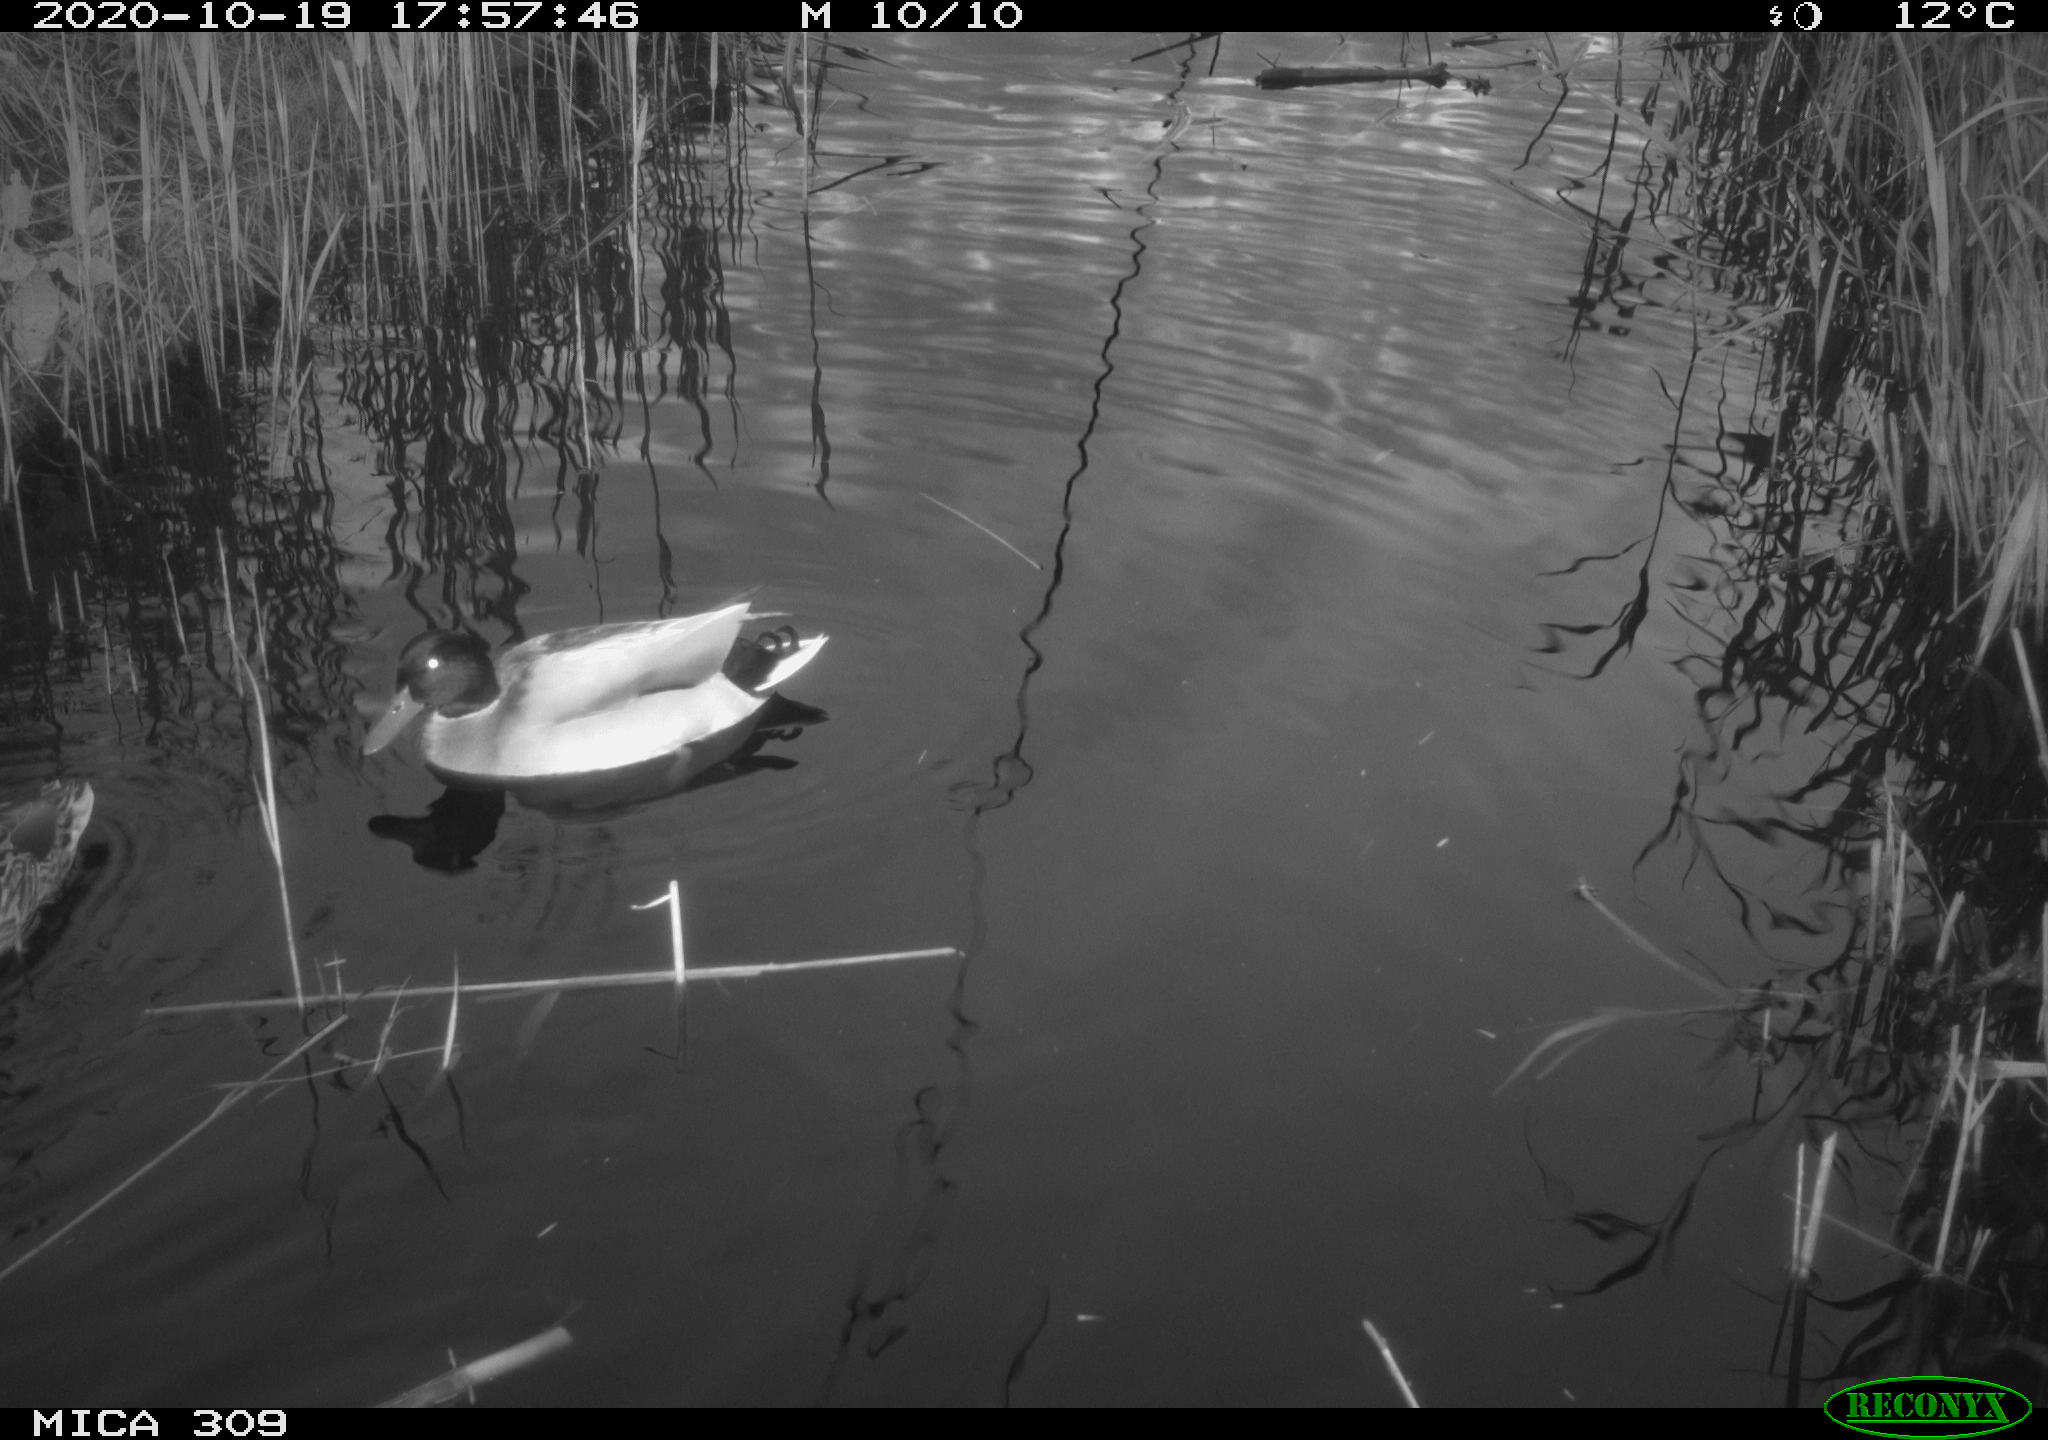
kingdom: Animalia
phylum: Chordata
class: Aves
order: Anseriformes
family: Anatidae
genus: Anas
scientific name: Anas platyrhynchos
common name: Mallard
